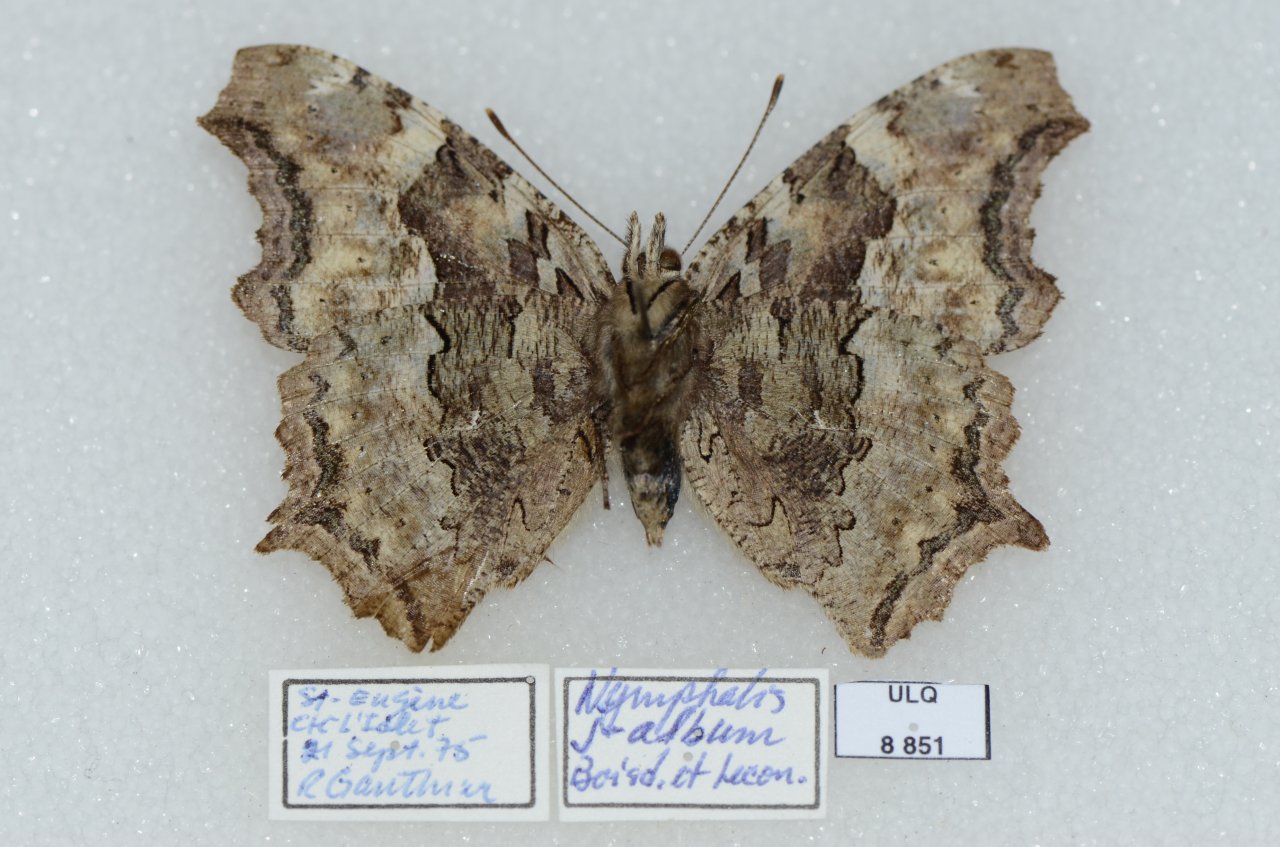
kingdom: Animalia
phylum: Arthropoda
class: Insecta
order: Lepidoptera
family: Nymphalidae
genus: Polygonia
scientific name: Polygonia vaualbum
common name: Compton Tortoiseshell
